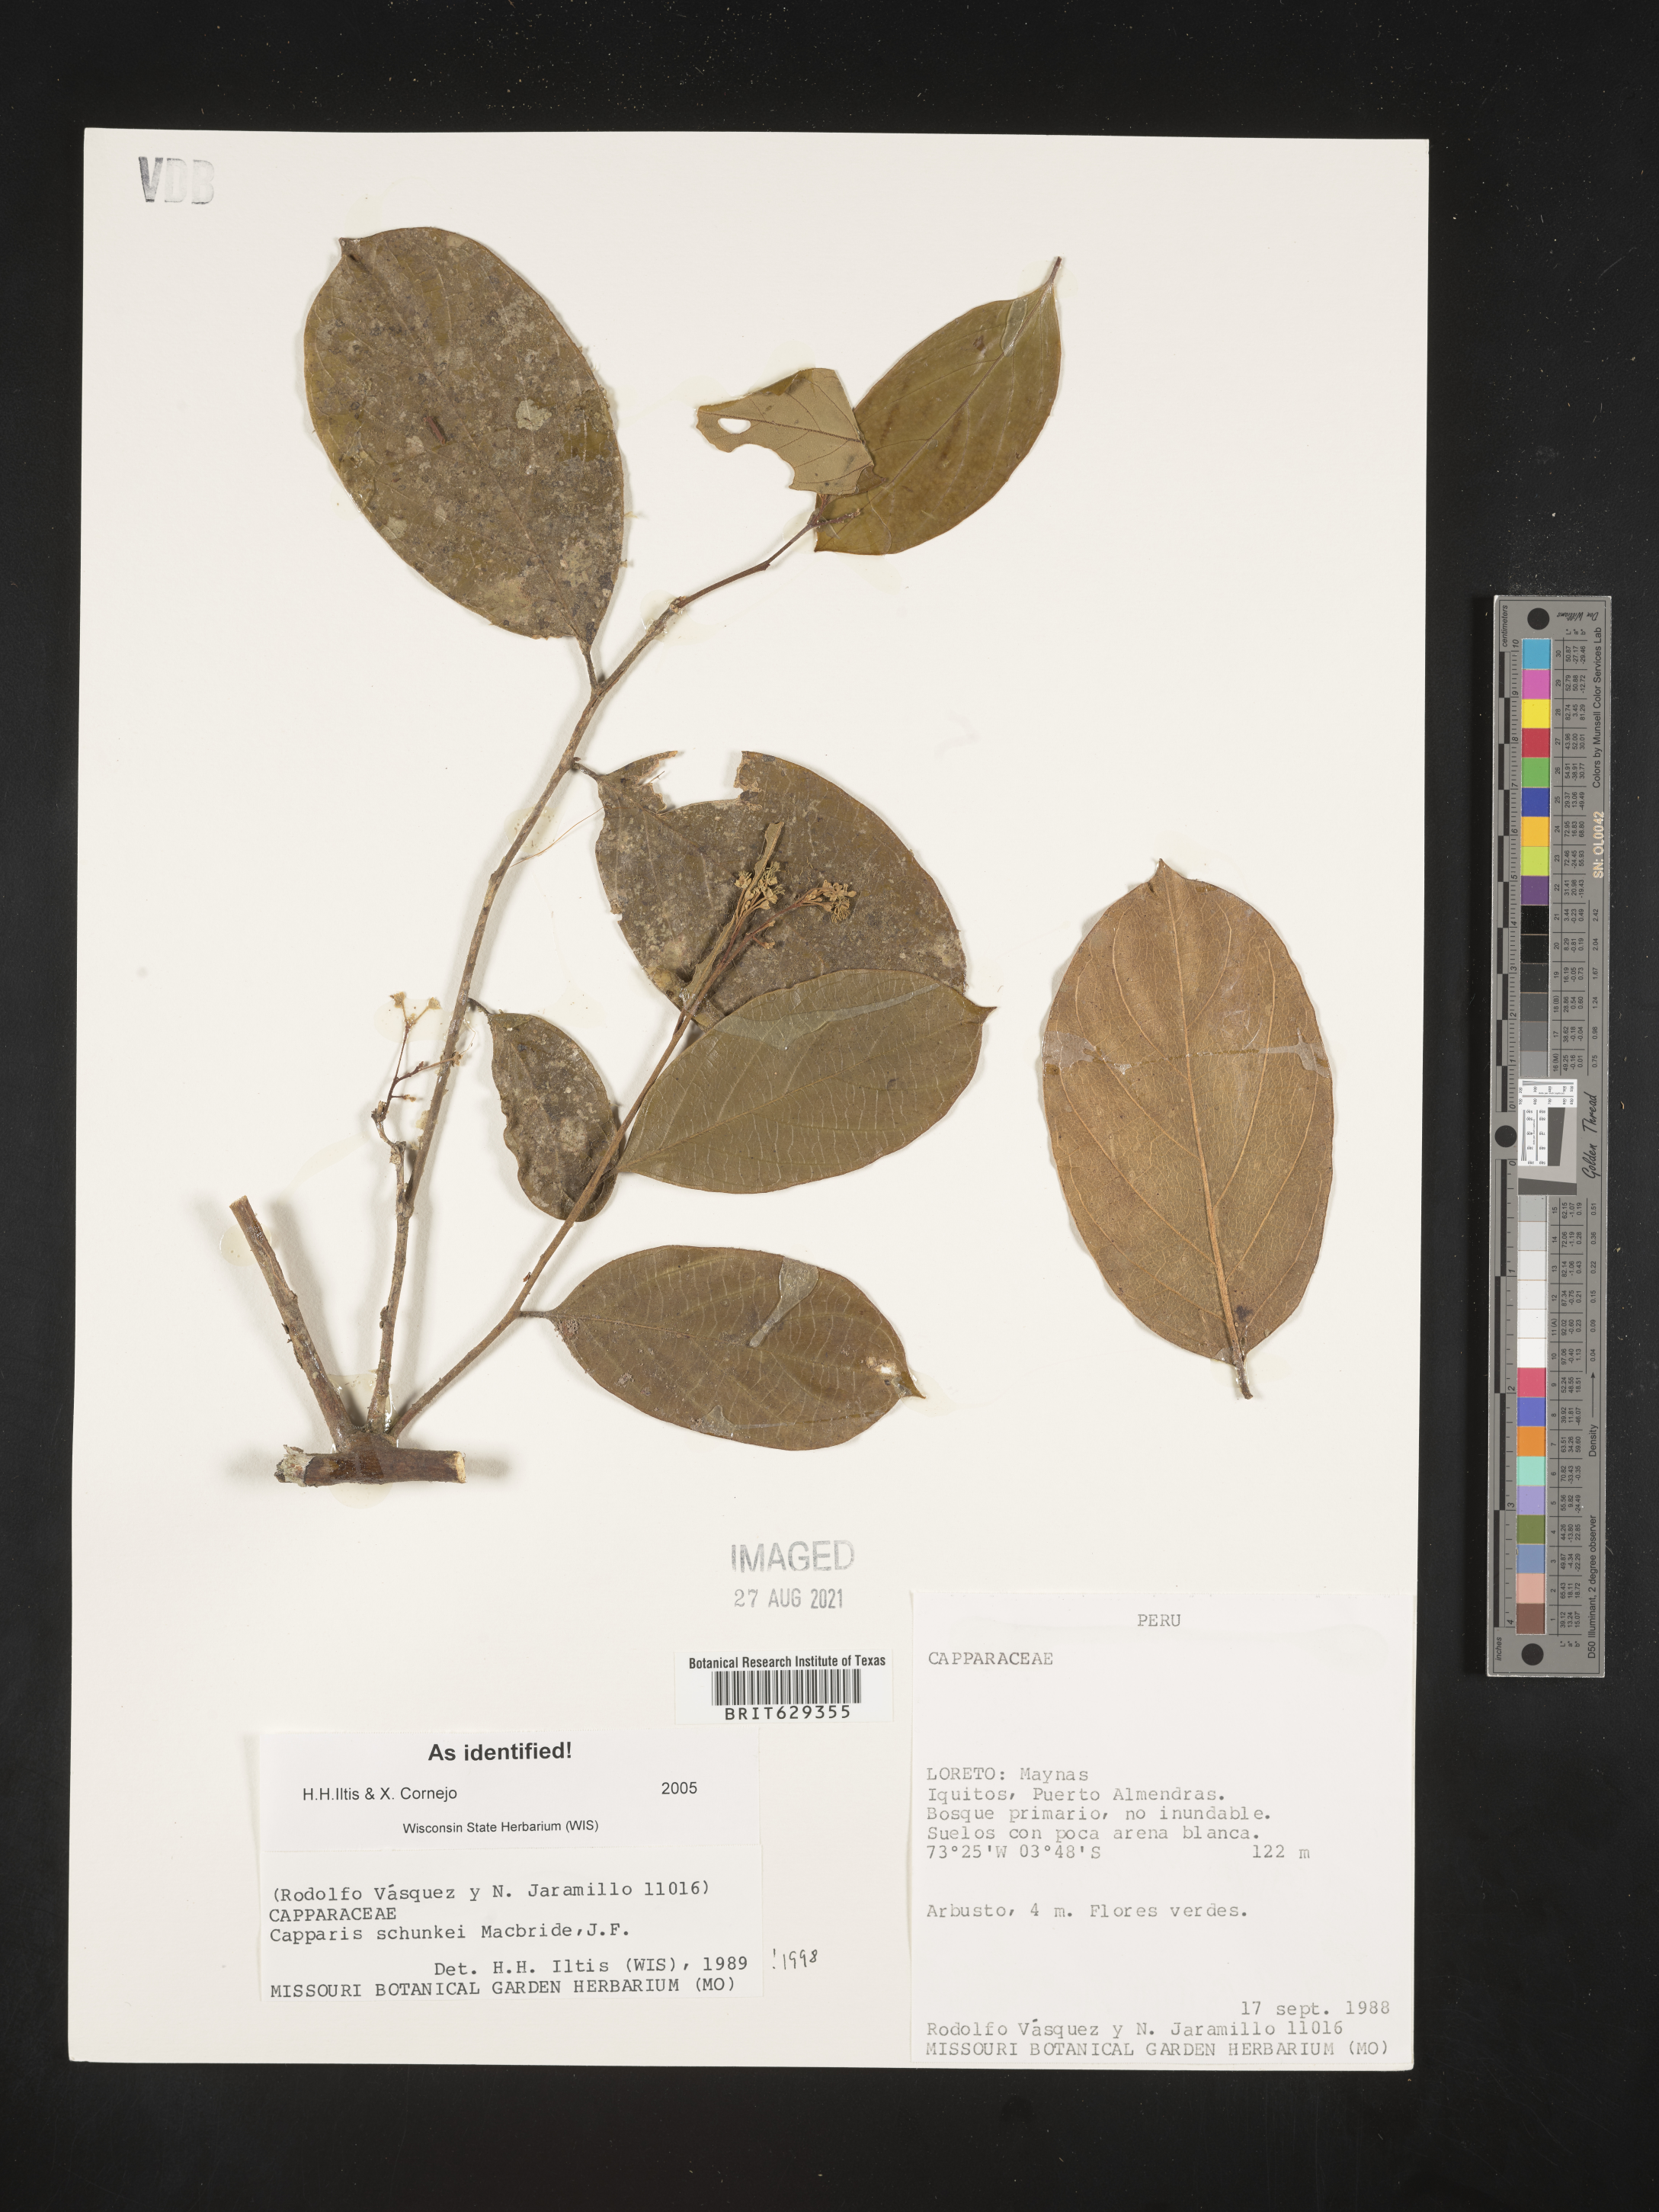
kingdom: Plantae
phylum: Tracheophyta
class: Magnoliopsida
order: Brassicales
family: Capparaceae
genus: Preslianthus
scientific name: Preslianthus detonsus
